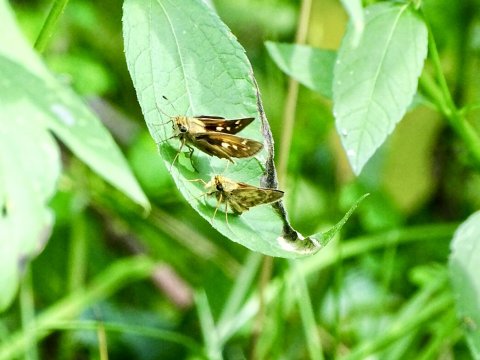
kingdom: Animalia
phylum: Arthropoda
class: Insecta
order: Lepidoptera
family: Hesperiidae
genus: Atalopedes
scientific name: Atalopedes campestris
